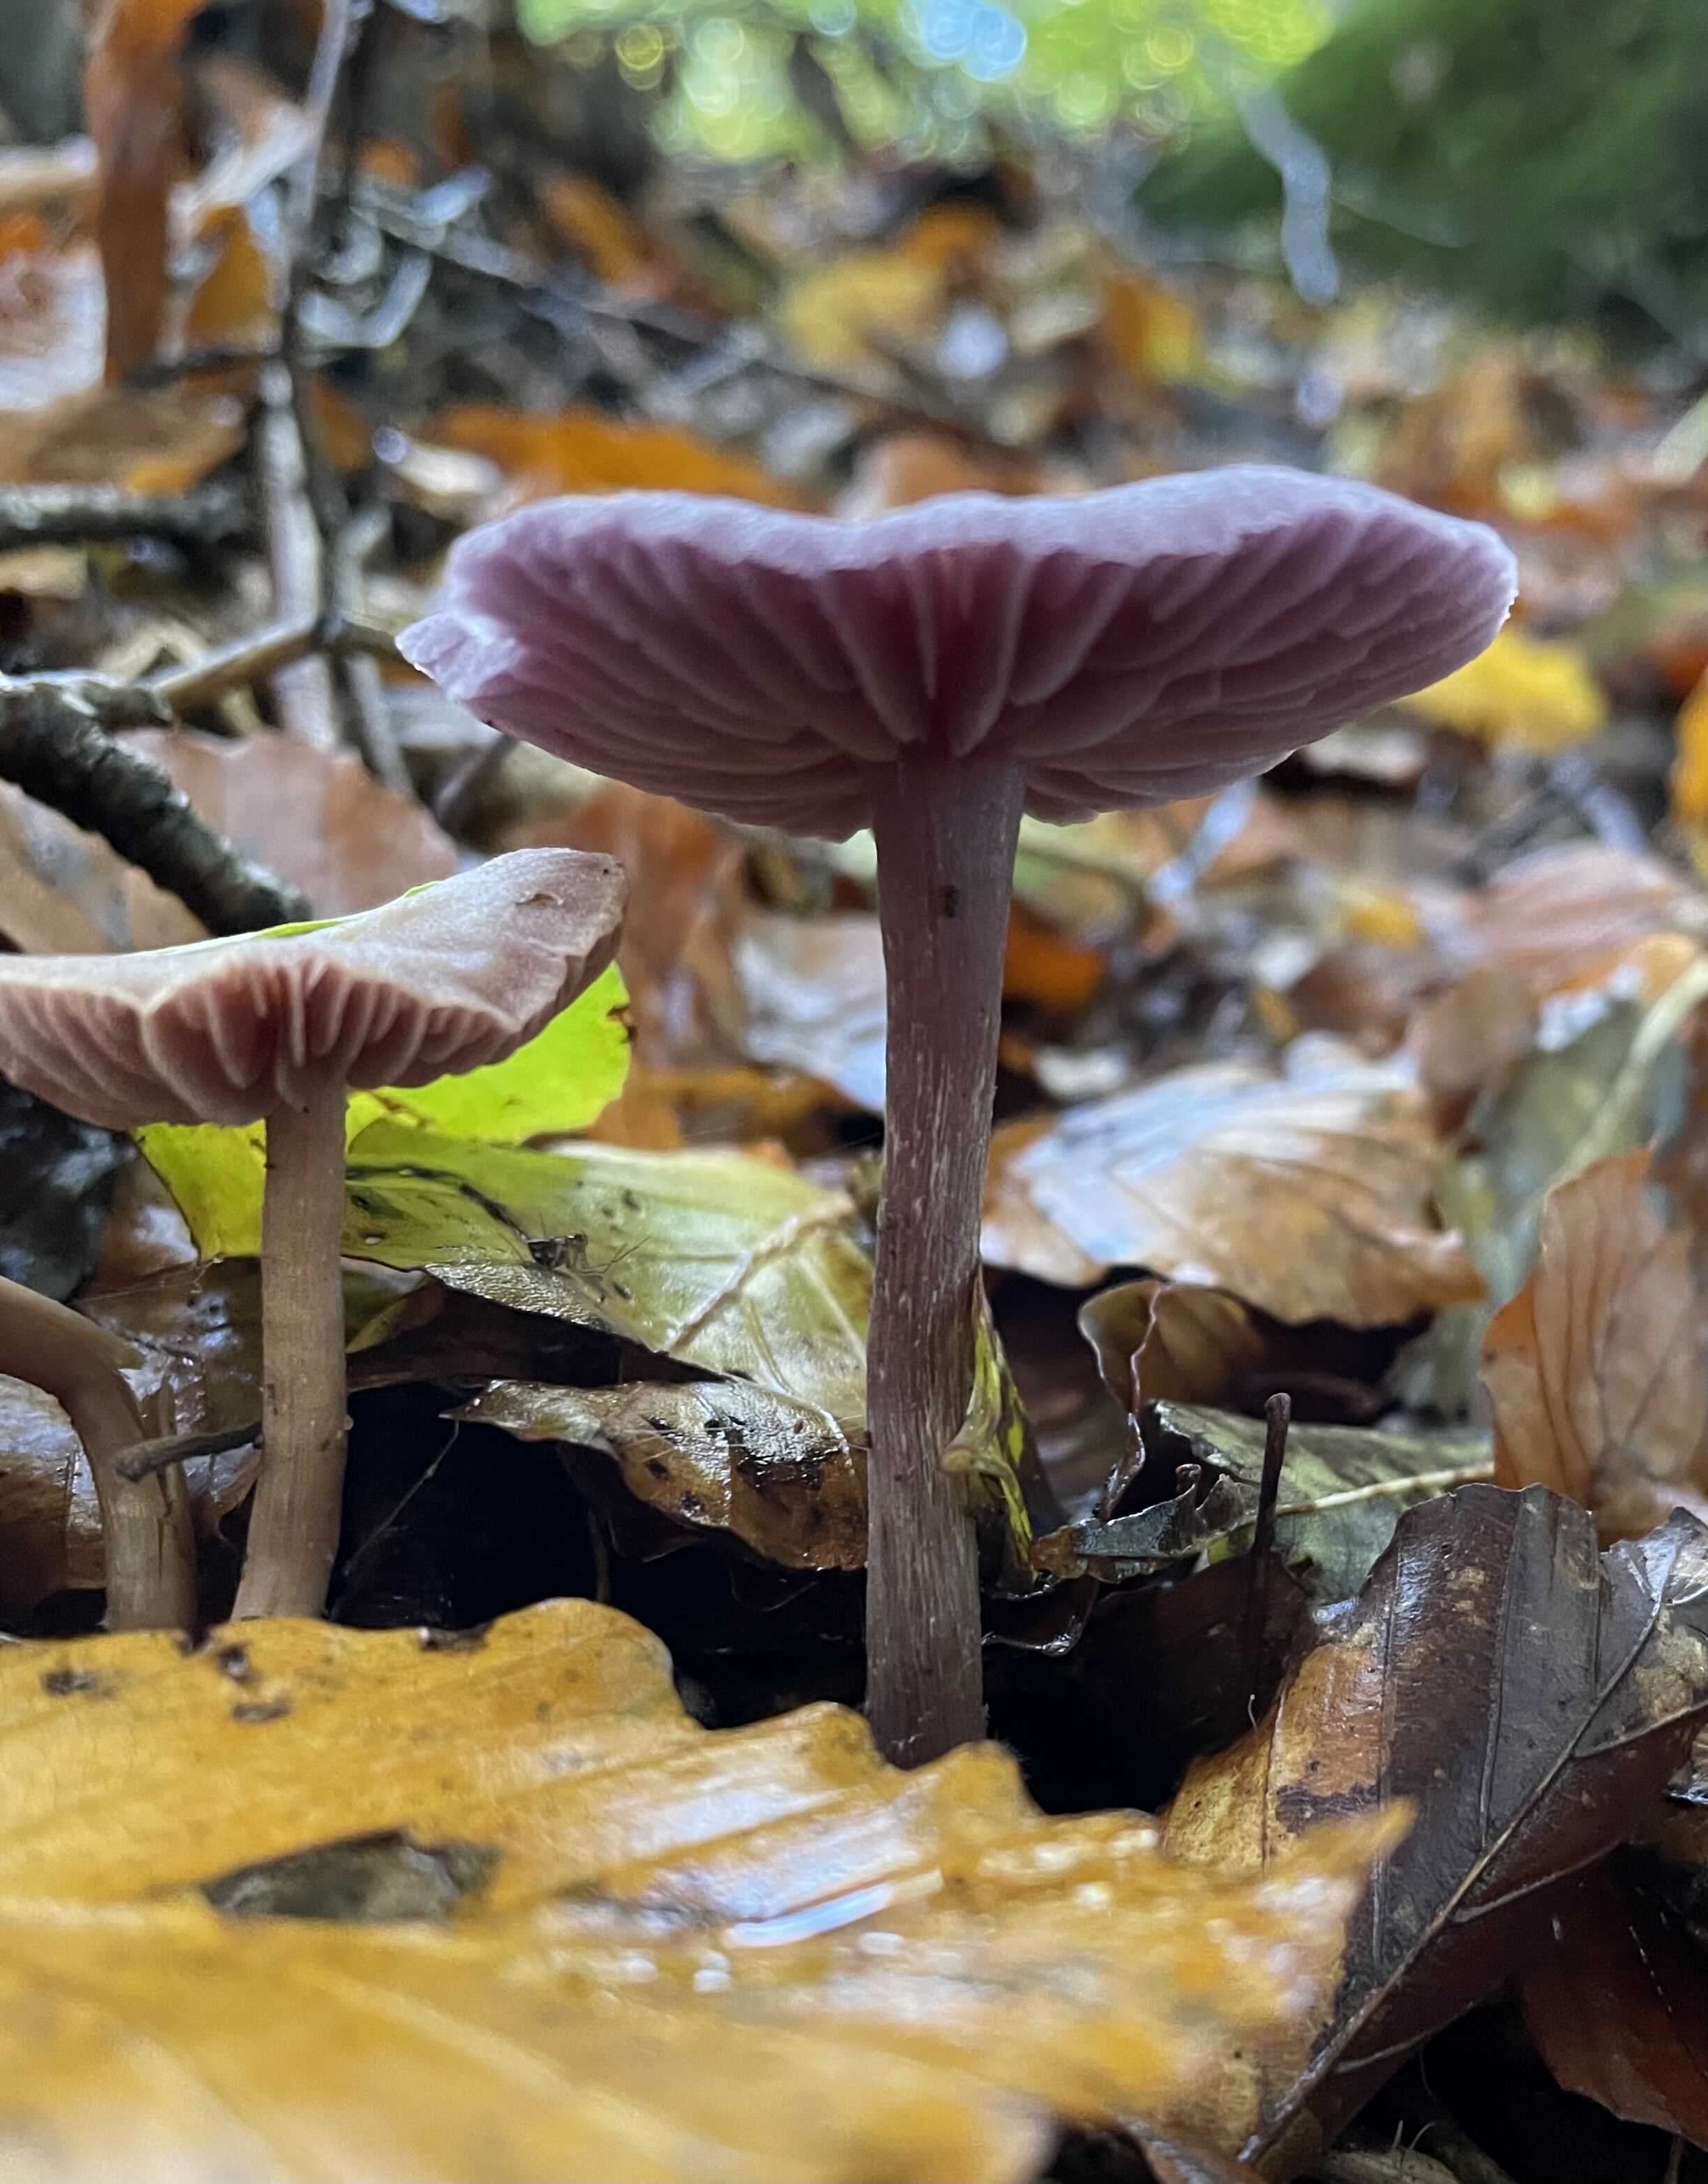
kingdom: Fungi
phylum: Basidiomycota
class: Agaricomycetes
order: Agaricales
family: Hydnangiaceae
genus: Laccaria
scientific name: Laccaria amethystina
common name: violet ametysthat
